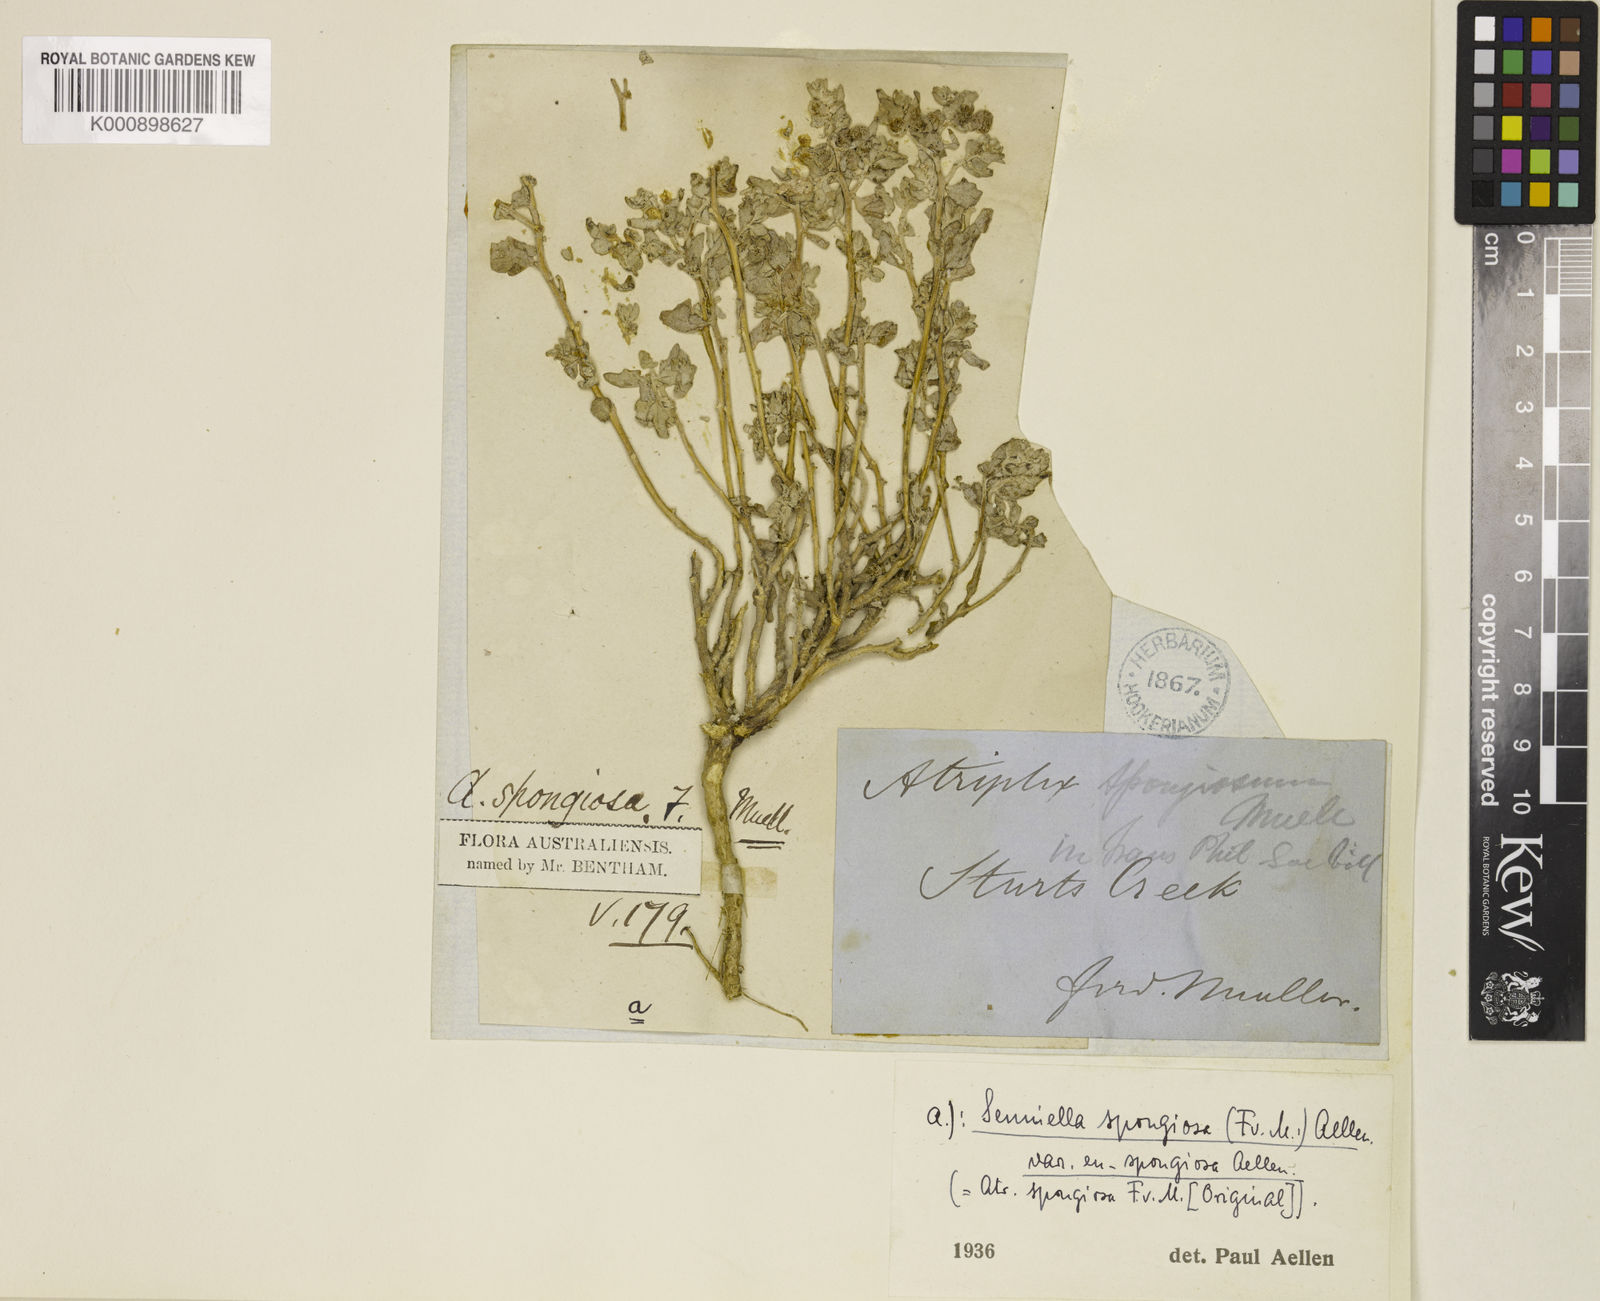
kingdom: Plantae
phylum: Tracheophyta
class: Magnoliopsida
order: Caryophyllales
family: Amaranthaceae
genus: Atriplex
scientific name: Atriplex holocarpa
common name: Pop saltbush
